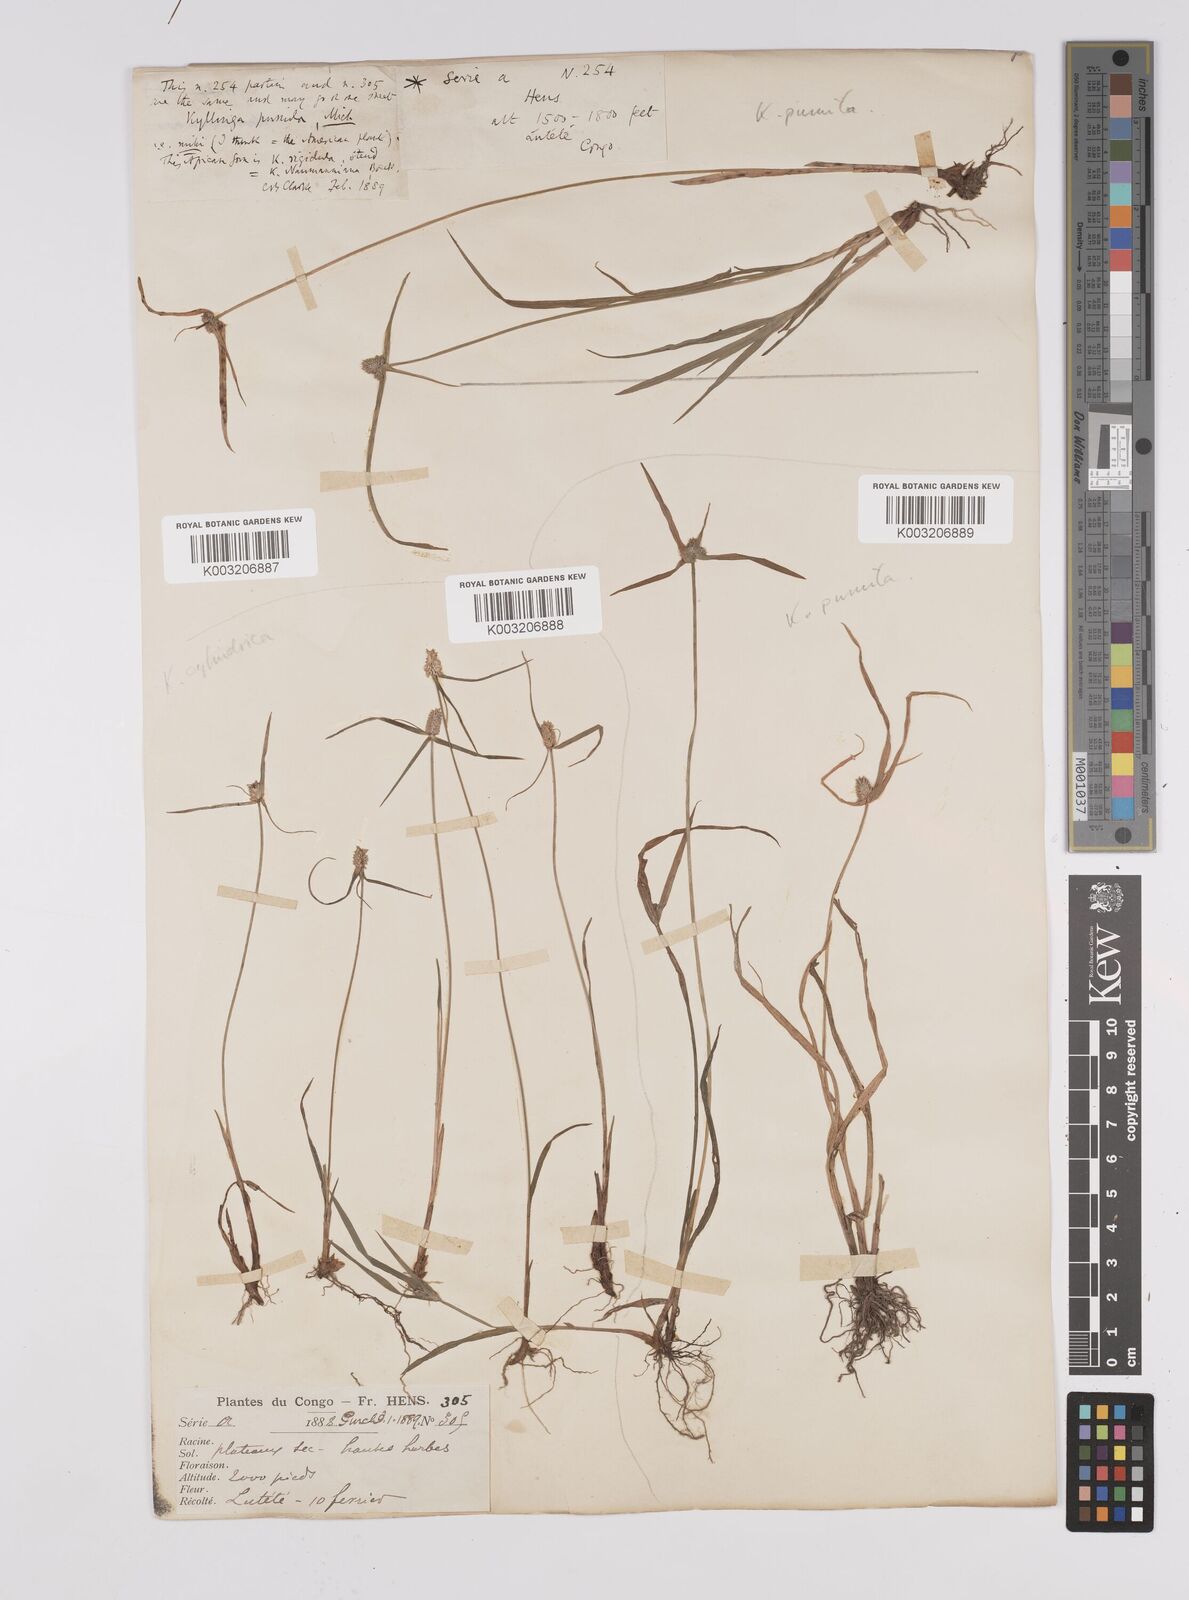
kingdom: Plantae
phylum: Tracheophyta
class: Liliopsida
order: Poales
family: Cyperaceae
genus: Cyperus
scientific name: Cyperus odoratus
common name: Fragrant flatsedge
